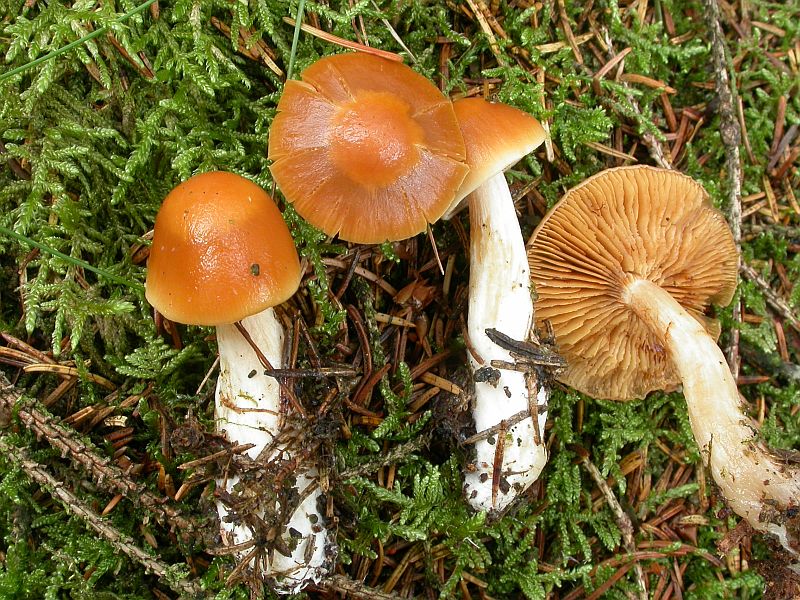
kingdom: Fungi
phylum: Basidiomycota
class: Agaricomycetes
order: Agaricales
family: Cortinariaceae
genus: Thaxterogaster
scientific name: Thaxterogaster pluvius
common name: hvidgul slørhat
